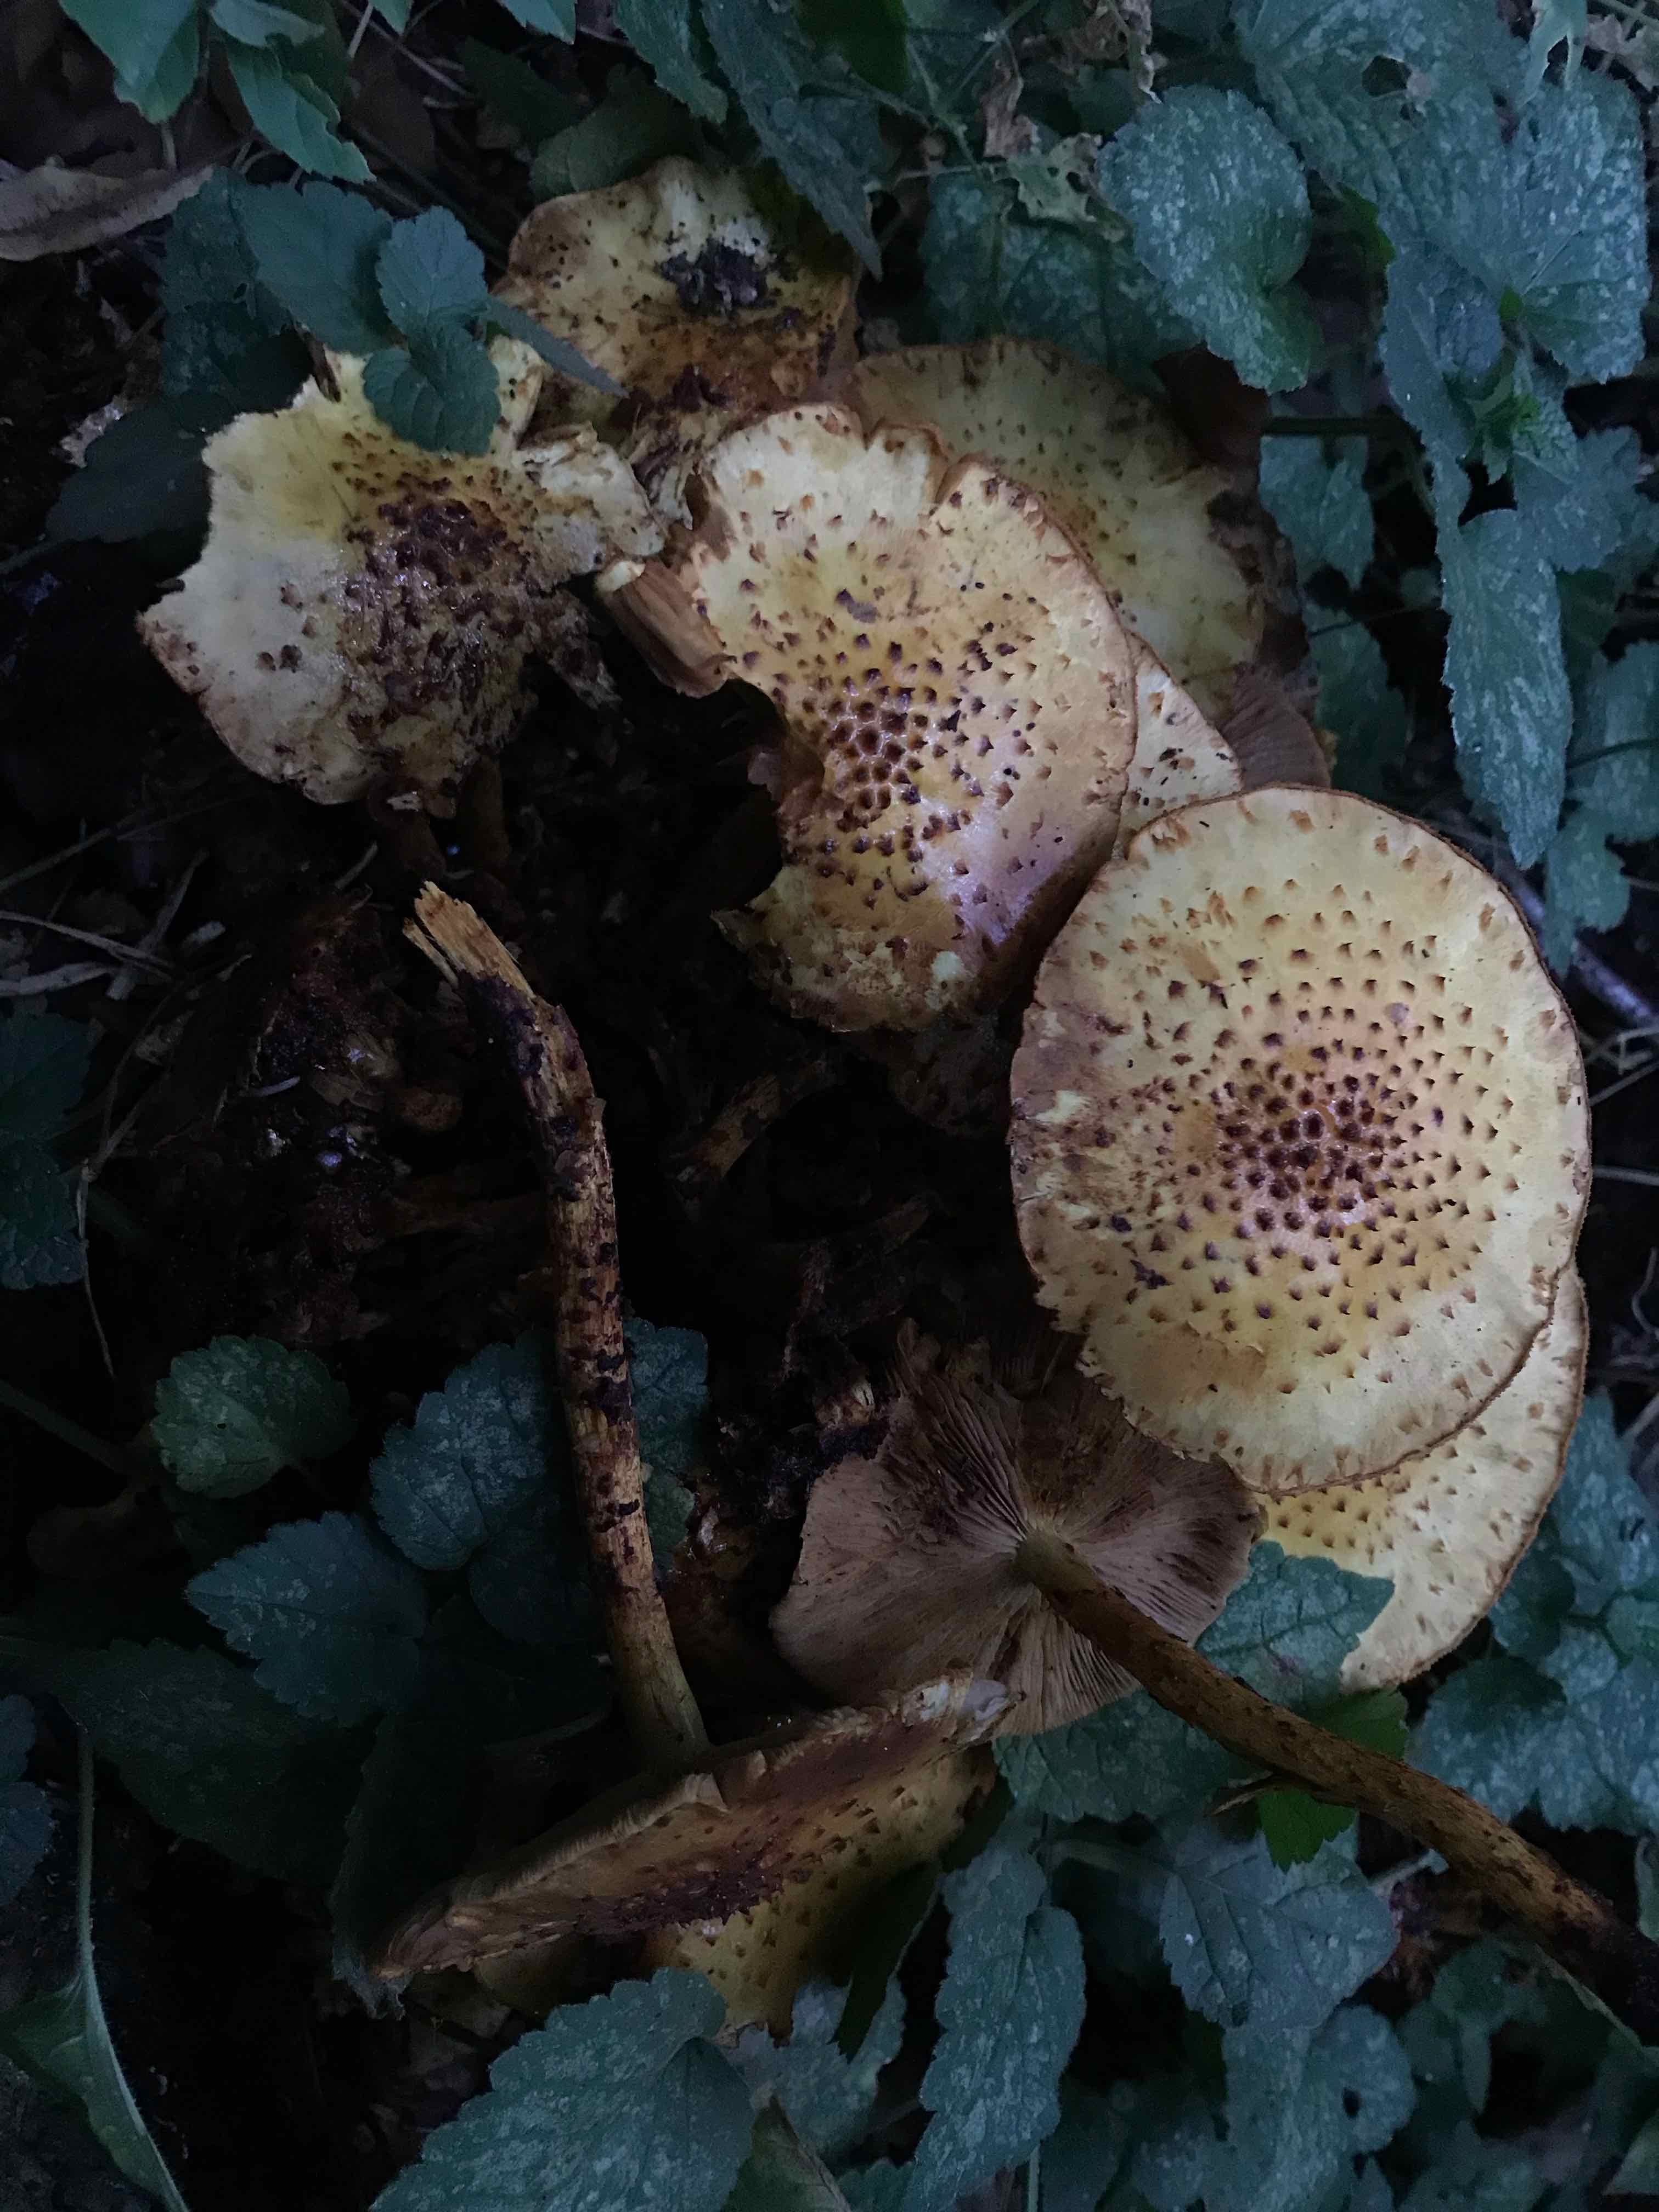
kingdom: Fungi
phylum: Basidiomycota
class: Agaricomycetes
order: Agaricales
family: Strophariaceae
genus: Pholiota
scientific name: Pholiota jahnii
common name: slimet skælhat
